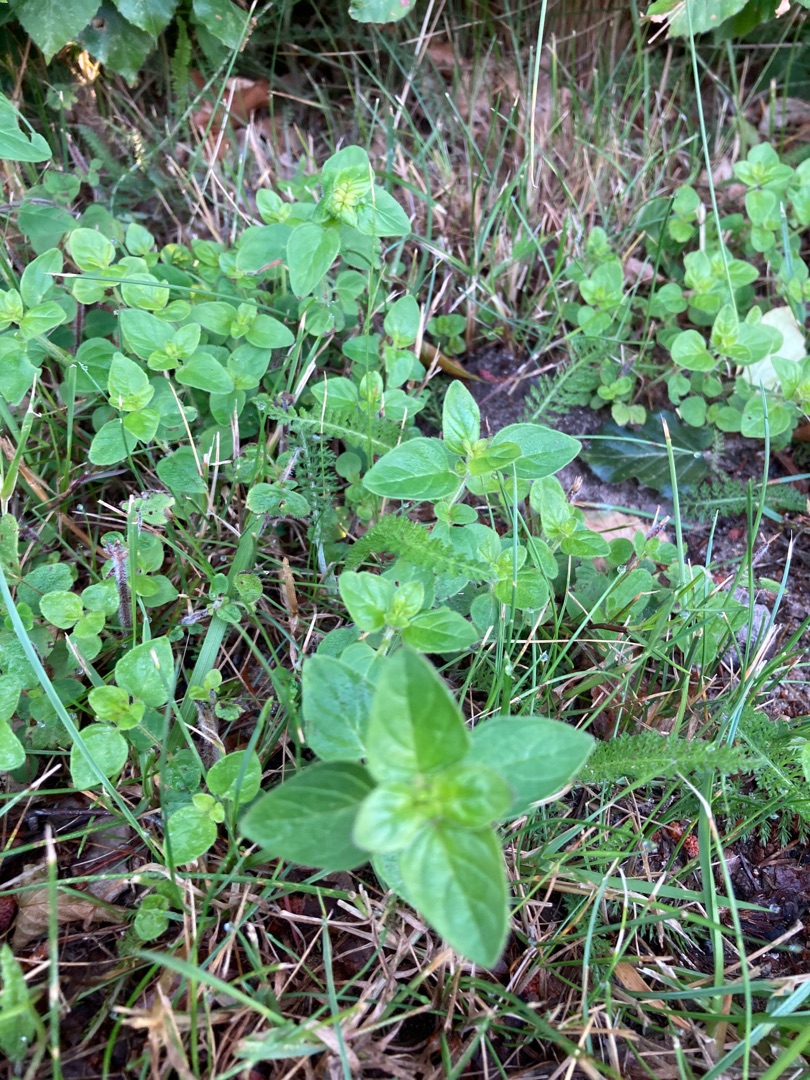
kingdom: Plantae
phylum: Tracheophyta
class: Magnoliopsida
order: Lamiales
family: Lamiaceae
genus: Origanum
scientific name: Origanum vulgare
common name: Merian
